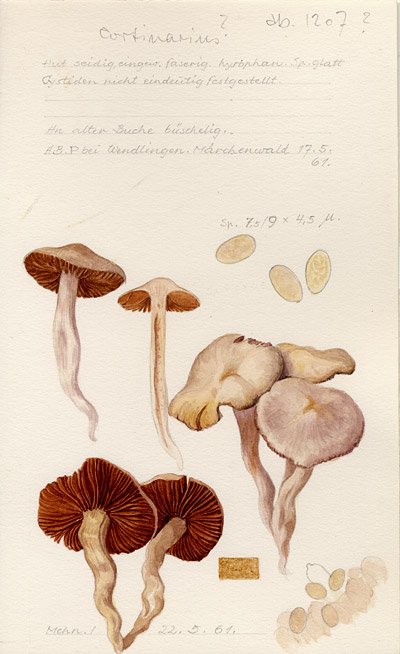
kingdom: Fungi
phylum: Basidiomycota
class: Agaricomycetes
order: Agaricales
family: Cortinariaceae
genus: Cortinarius
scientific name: Cortinarius
